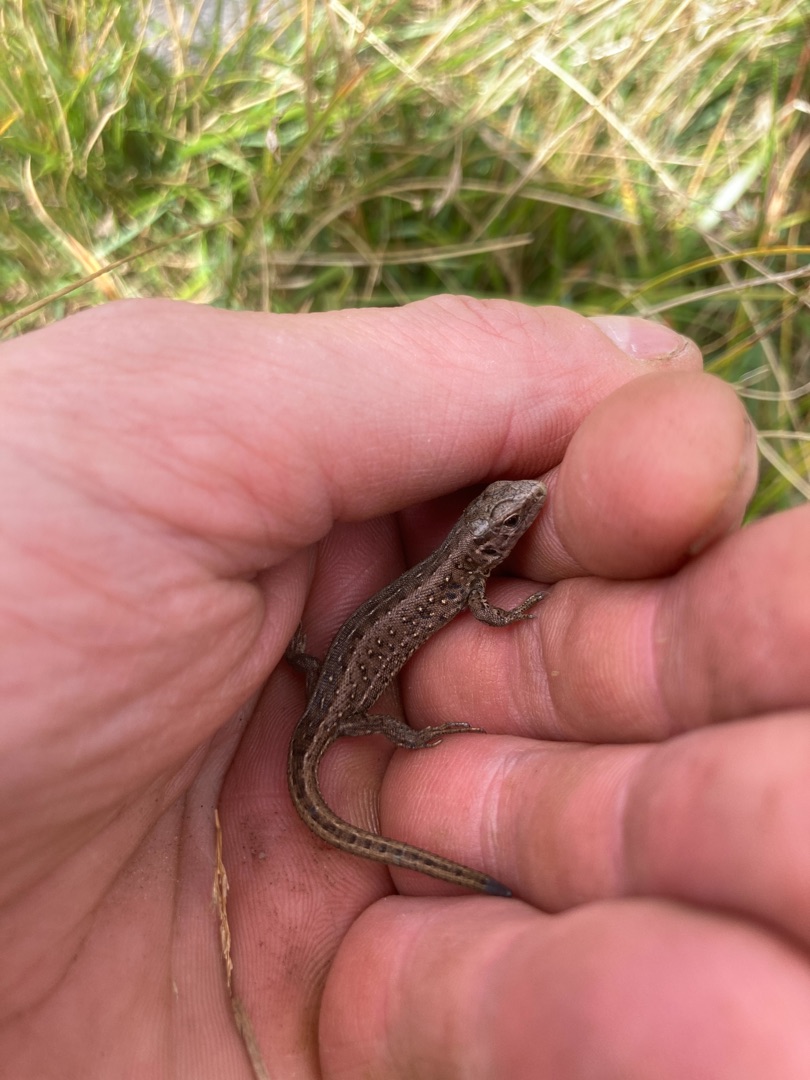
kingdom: Animalia
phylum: Chordata
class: Squamata
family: Lacertidae
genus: Lacerta
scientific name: Lacerta agilis
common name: Markfirben
